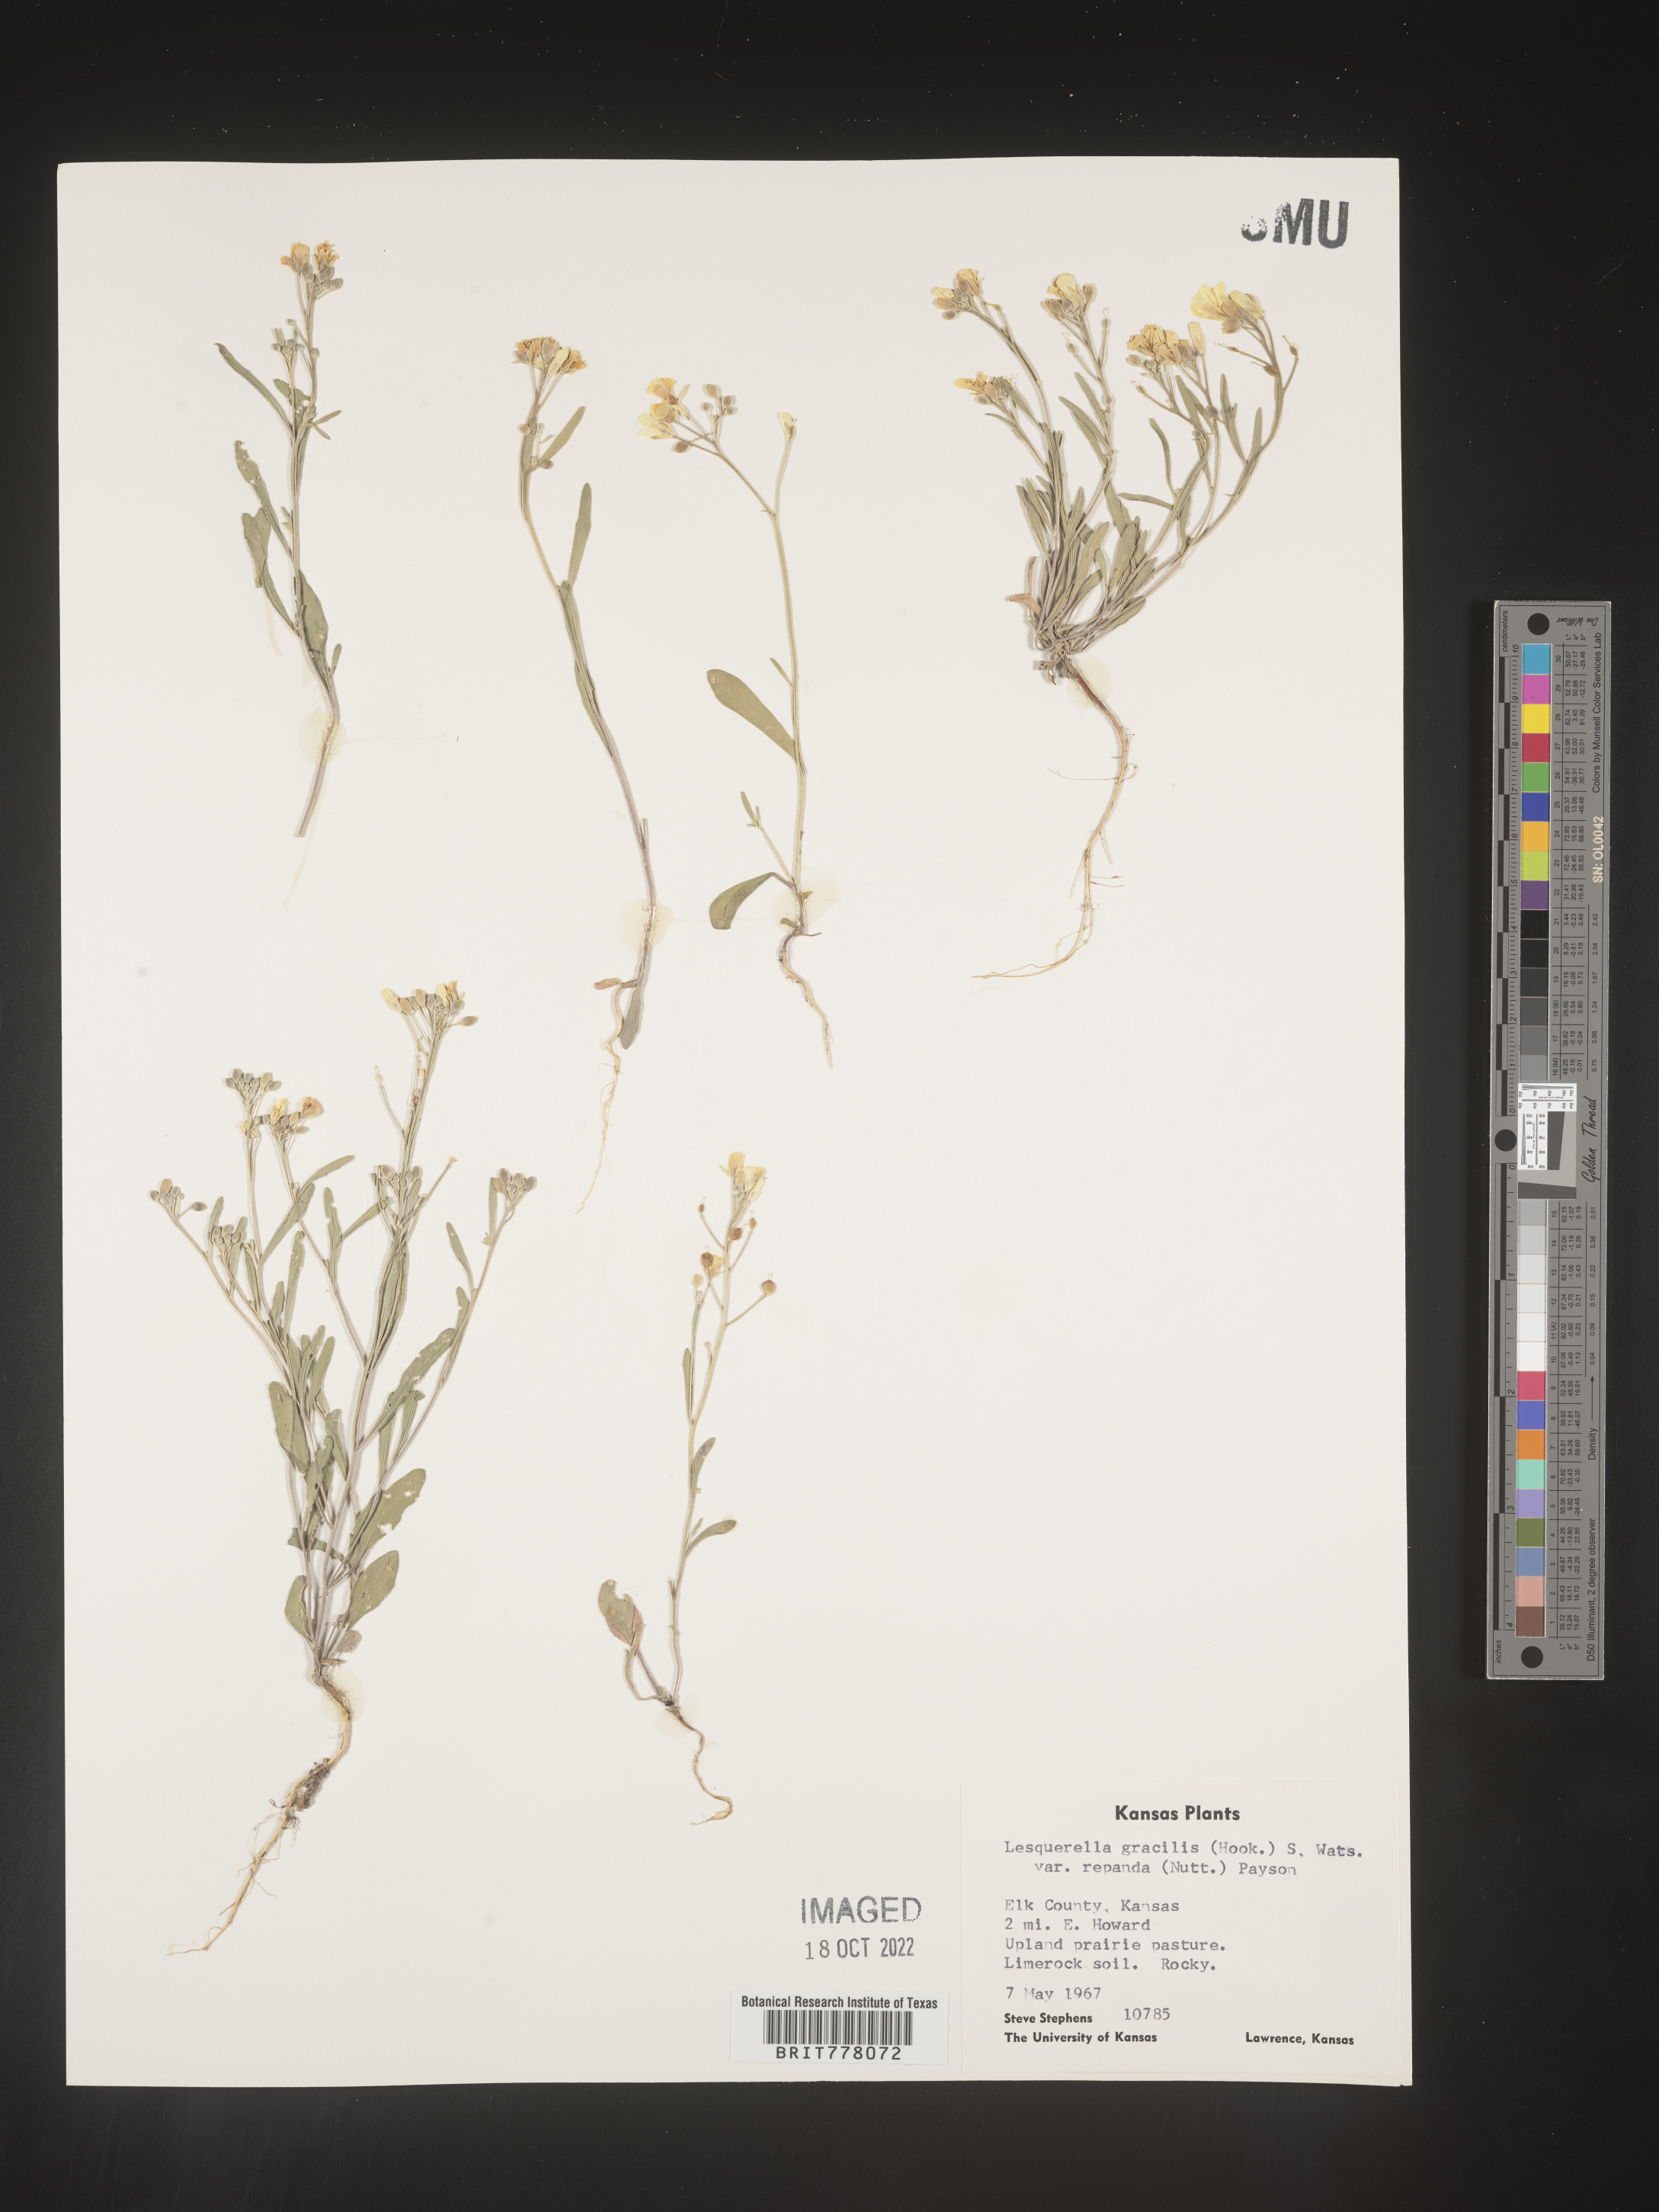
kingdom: Chromista
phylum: Cercozoa
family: Psammonobiotidae
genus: Lesquerella
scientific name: Lesquerella
